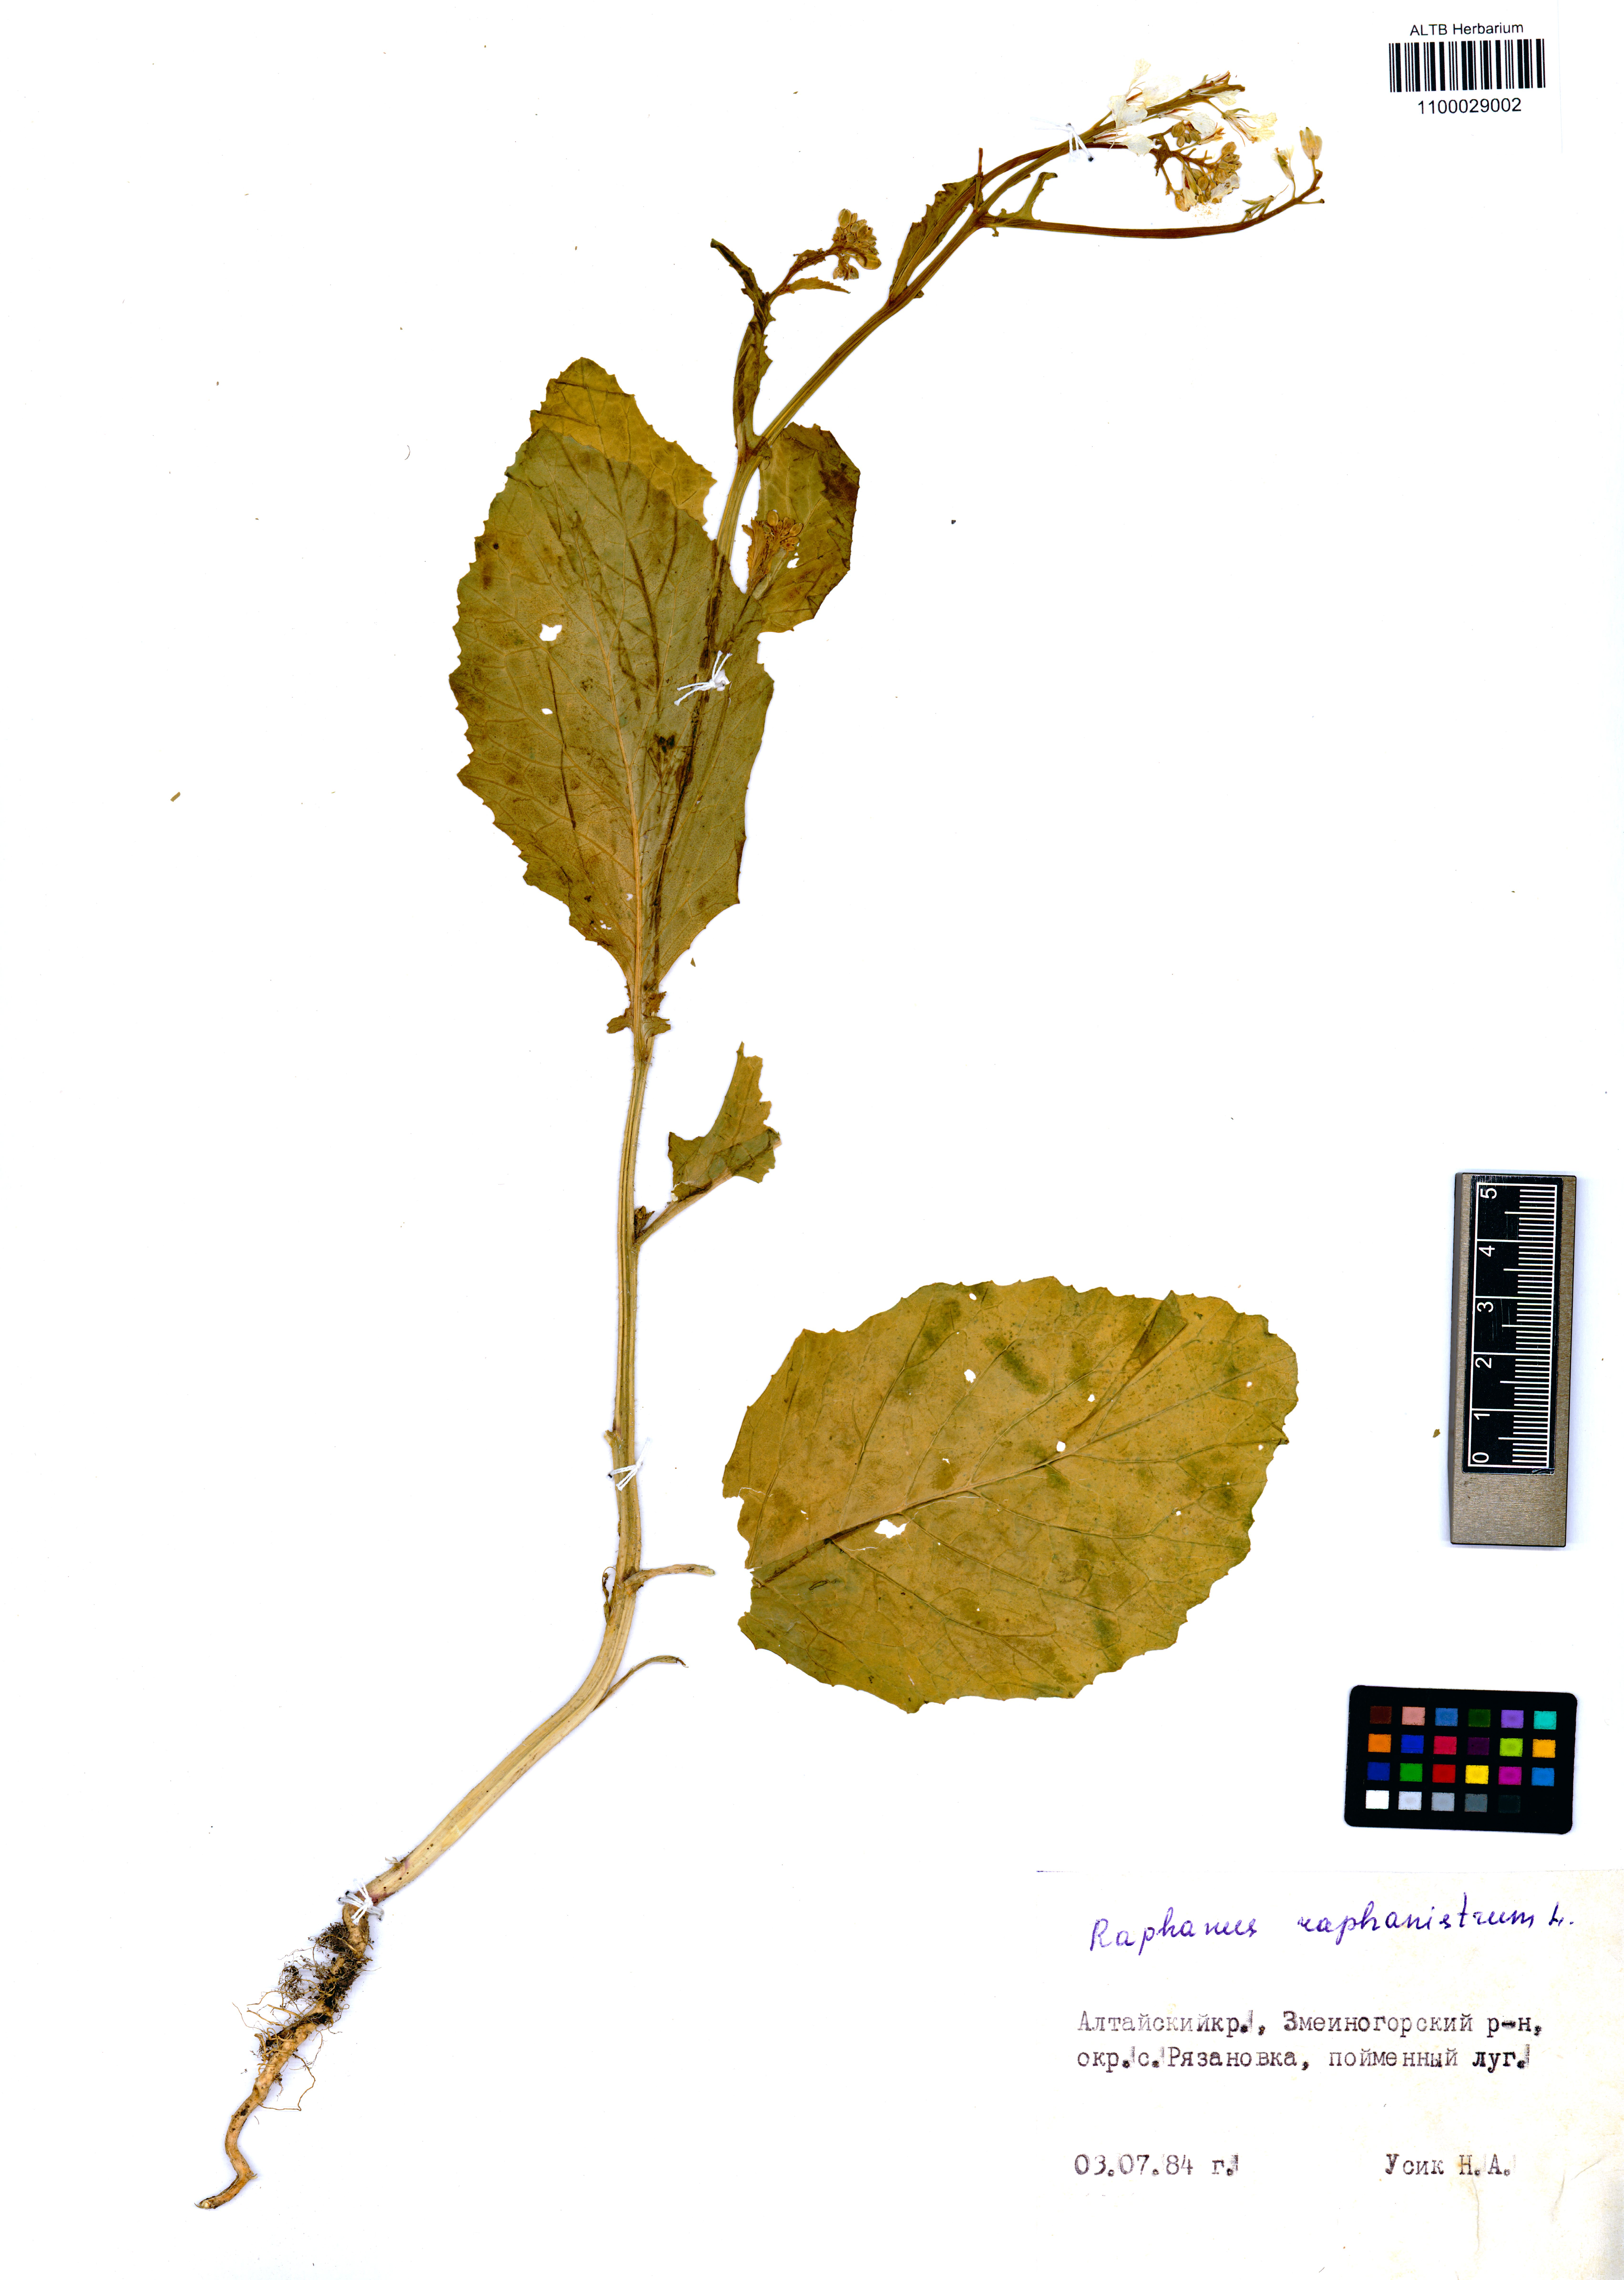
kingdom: Plantae
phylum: Tracheophyta
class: Magnoliopsida
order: Brassicales
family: Brassicaceae
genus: Raphanus
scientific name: Raphanus raphanistrum
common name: Wild radish
